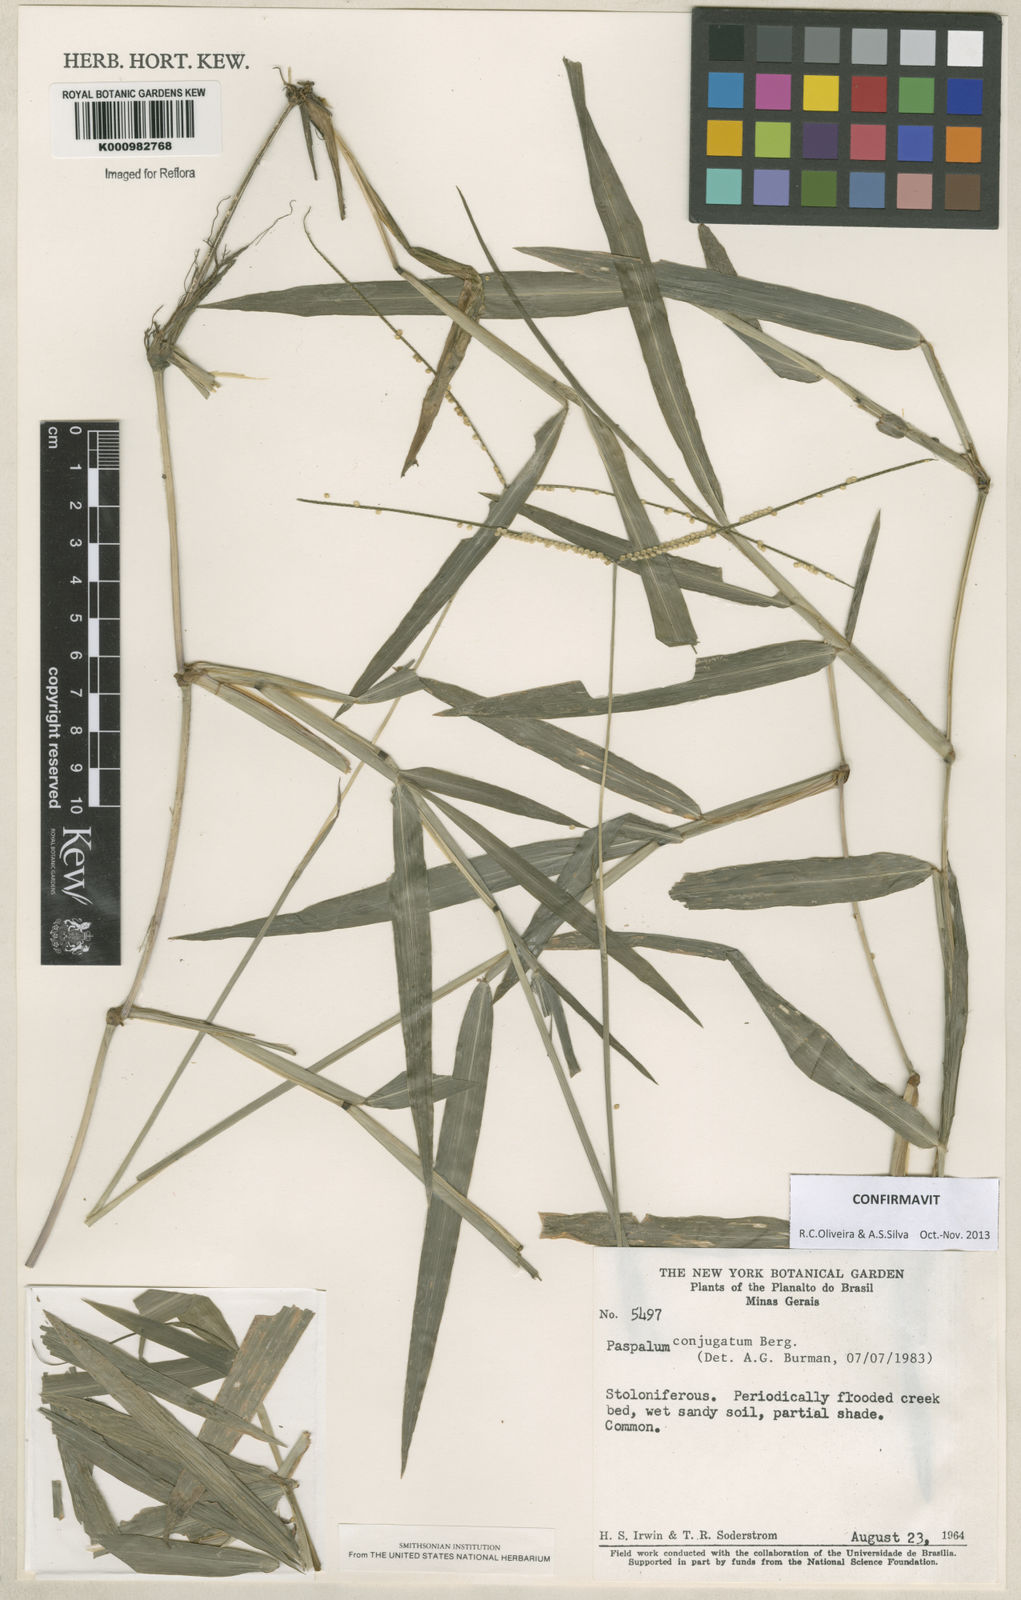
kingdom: Plantae
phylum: Tracheophyta
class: Liliopsida
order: Poales
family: Poaceae
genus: Paspalum
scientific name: Paspalum conjugatum
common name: Hilograss
